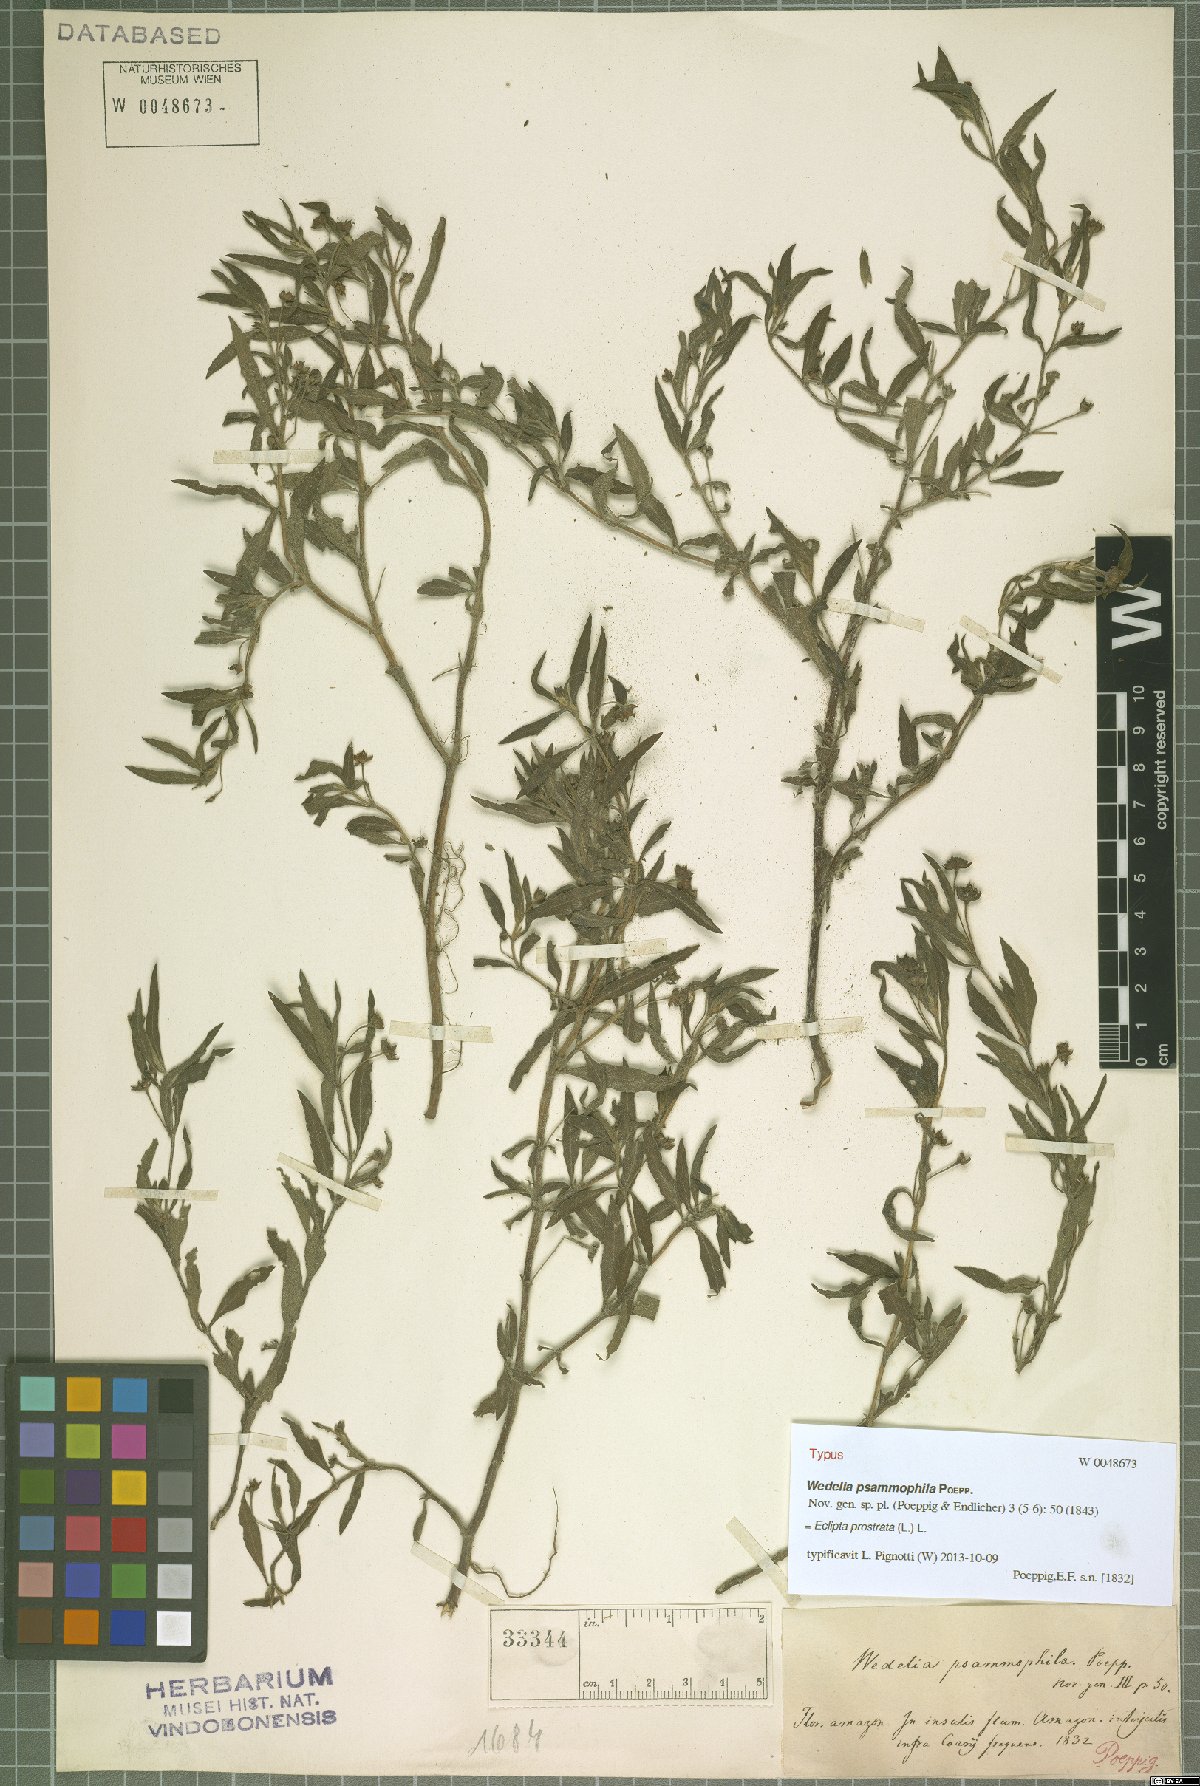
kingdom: Plantae
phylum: Tracheophyta
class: Magnoliopsida
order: Asterales
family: Asteraceae
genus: Eclipta
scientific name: Eclipta prostrata
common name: False daisy
